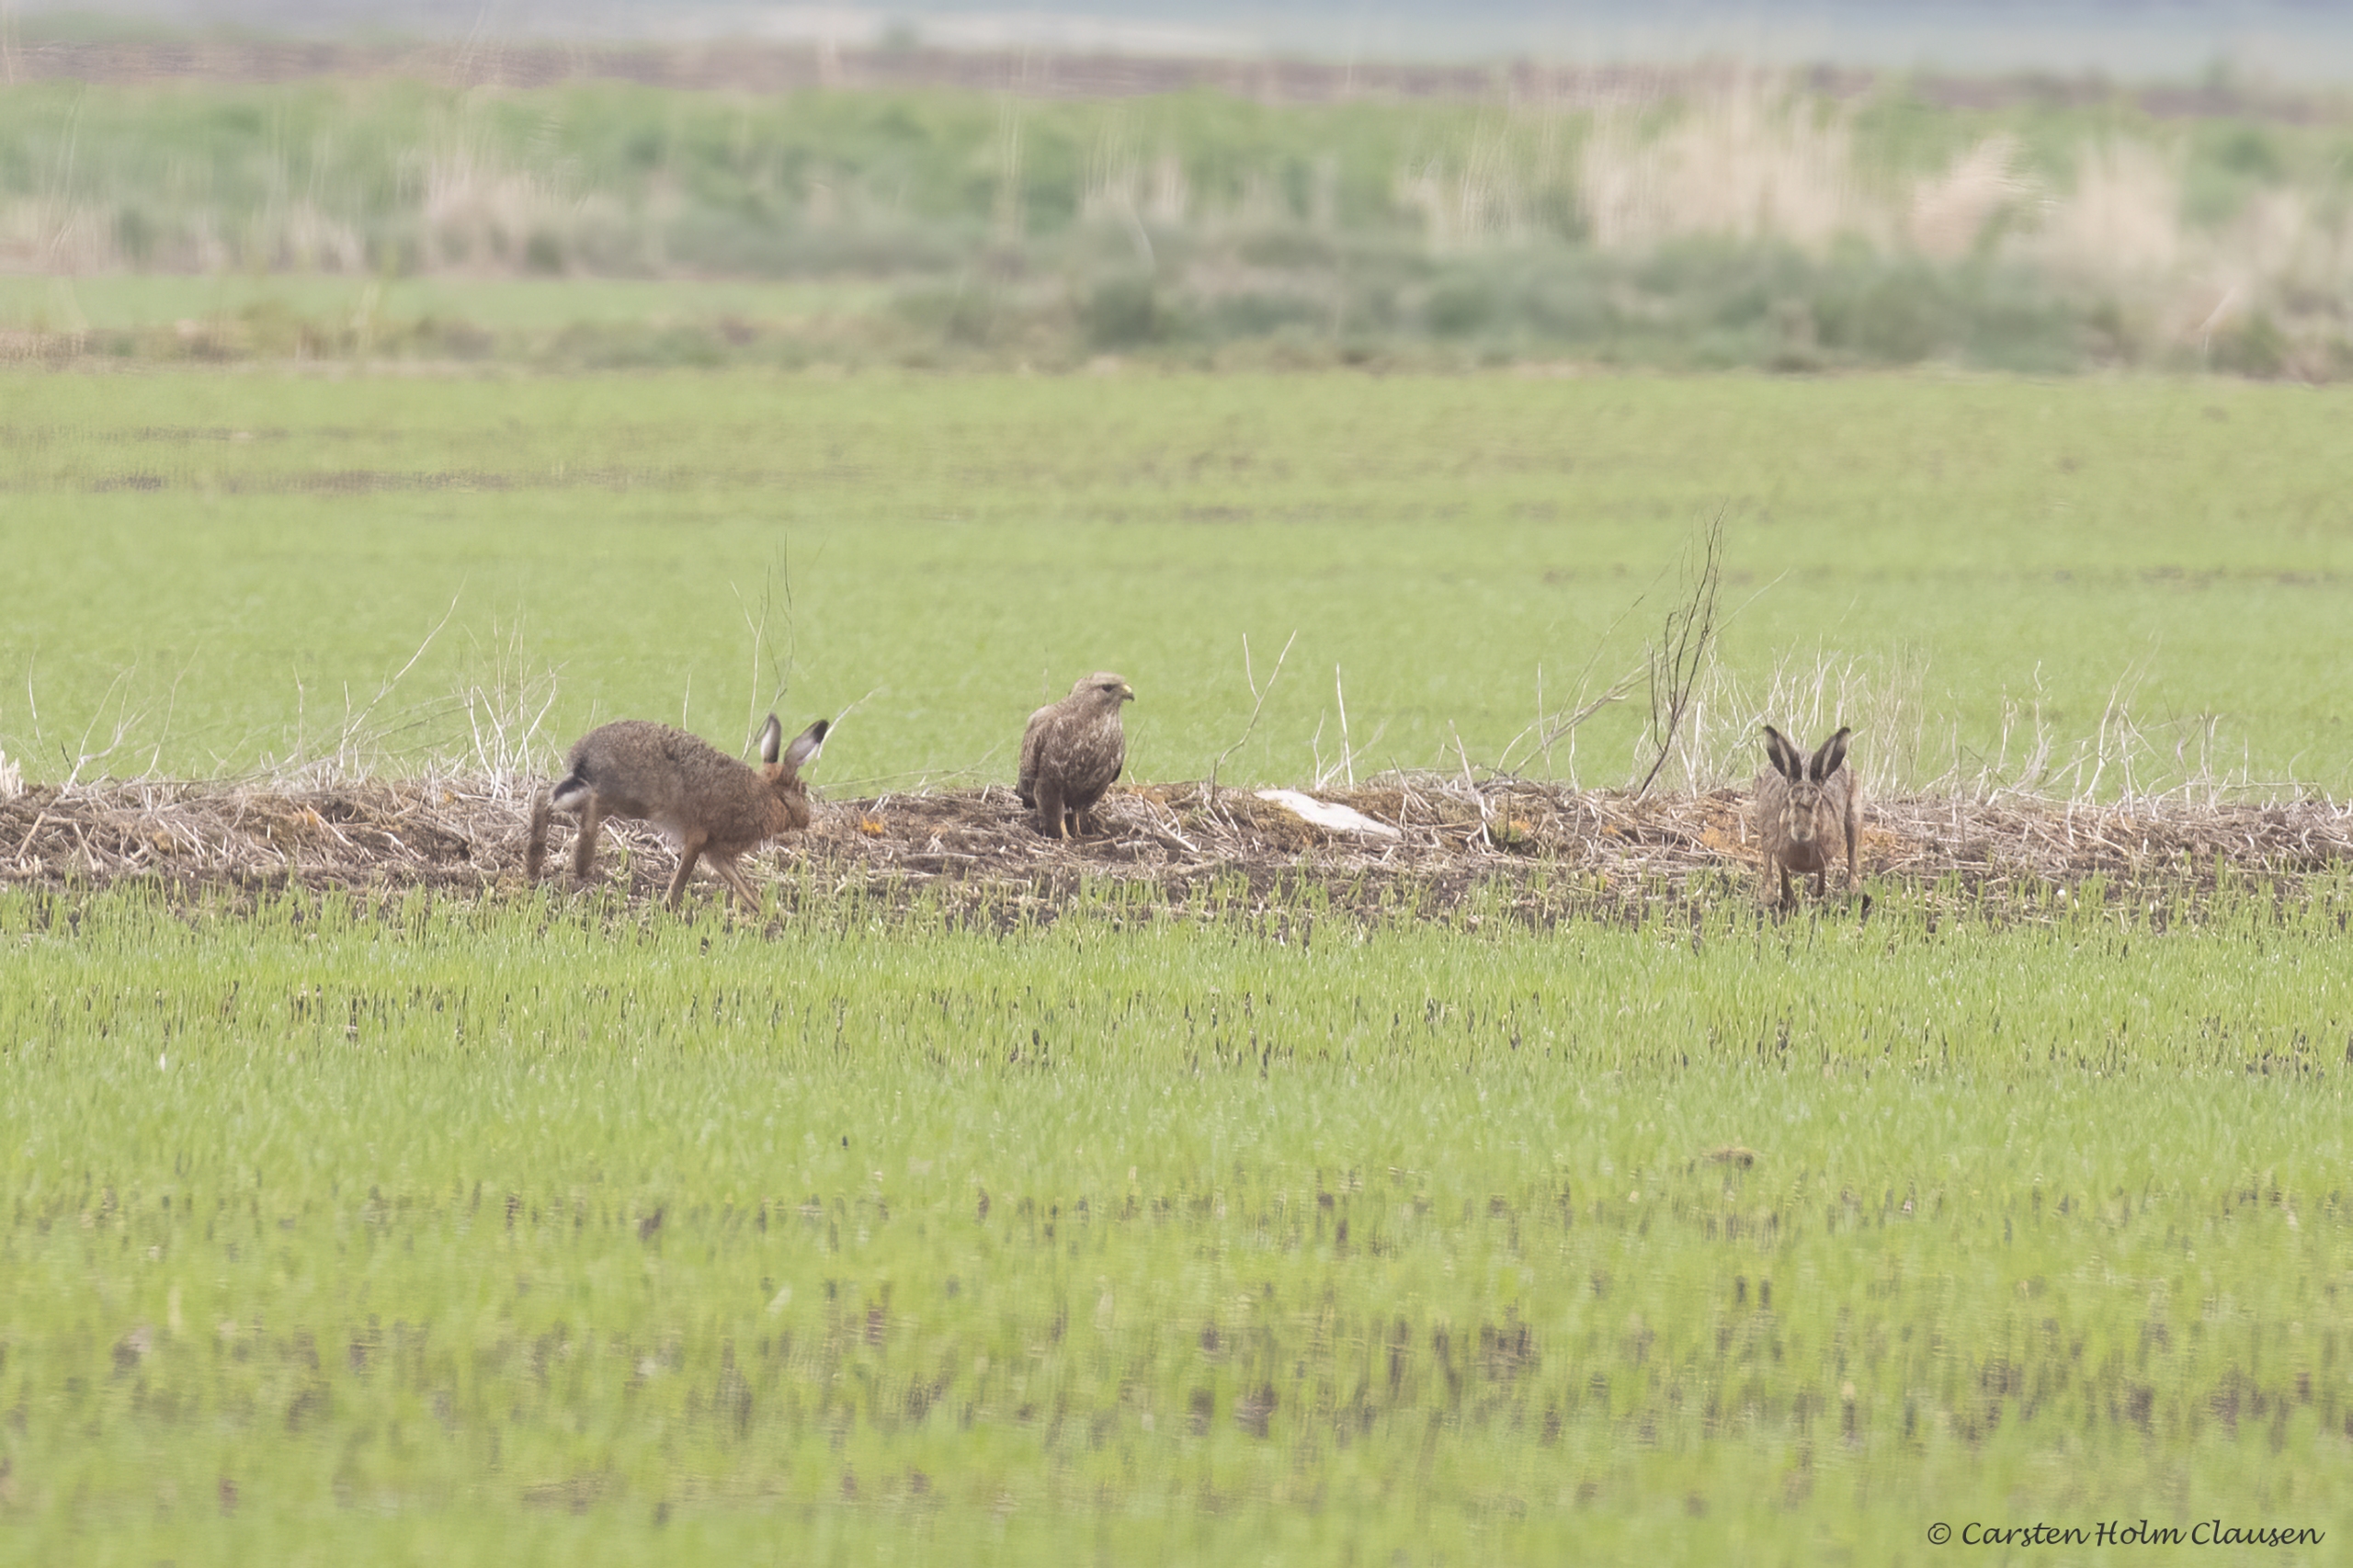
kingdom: Animalia
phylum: Chordata
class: Aves
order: Accipitriformes
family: Accipitridae
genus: Buteo
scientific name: Buteo buteo
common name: Musvåge
